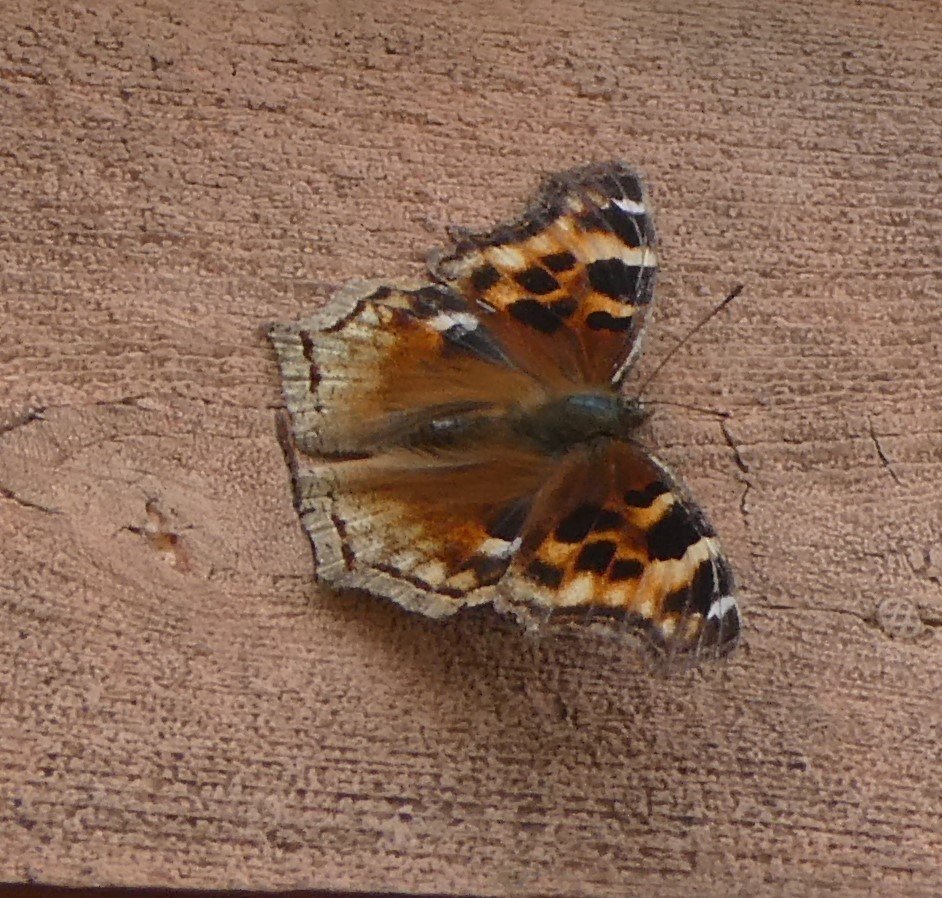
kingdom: Animalia
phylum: Arthropoda
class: Insecta
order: Lepidoptera
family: Nymphalidae
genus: Polygonia
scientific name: Polygonia vaualbum
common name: Compton Tortoiseshell
